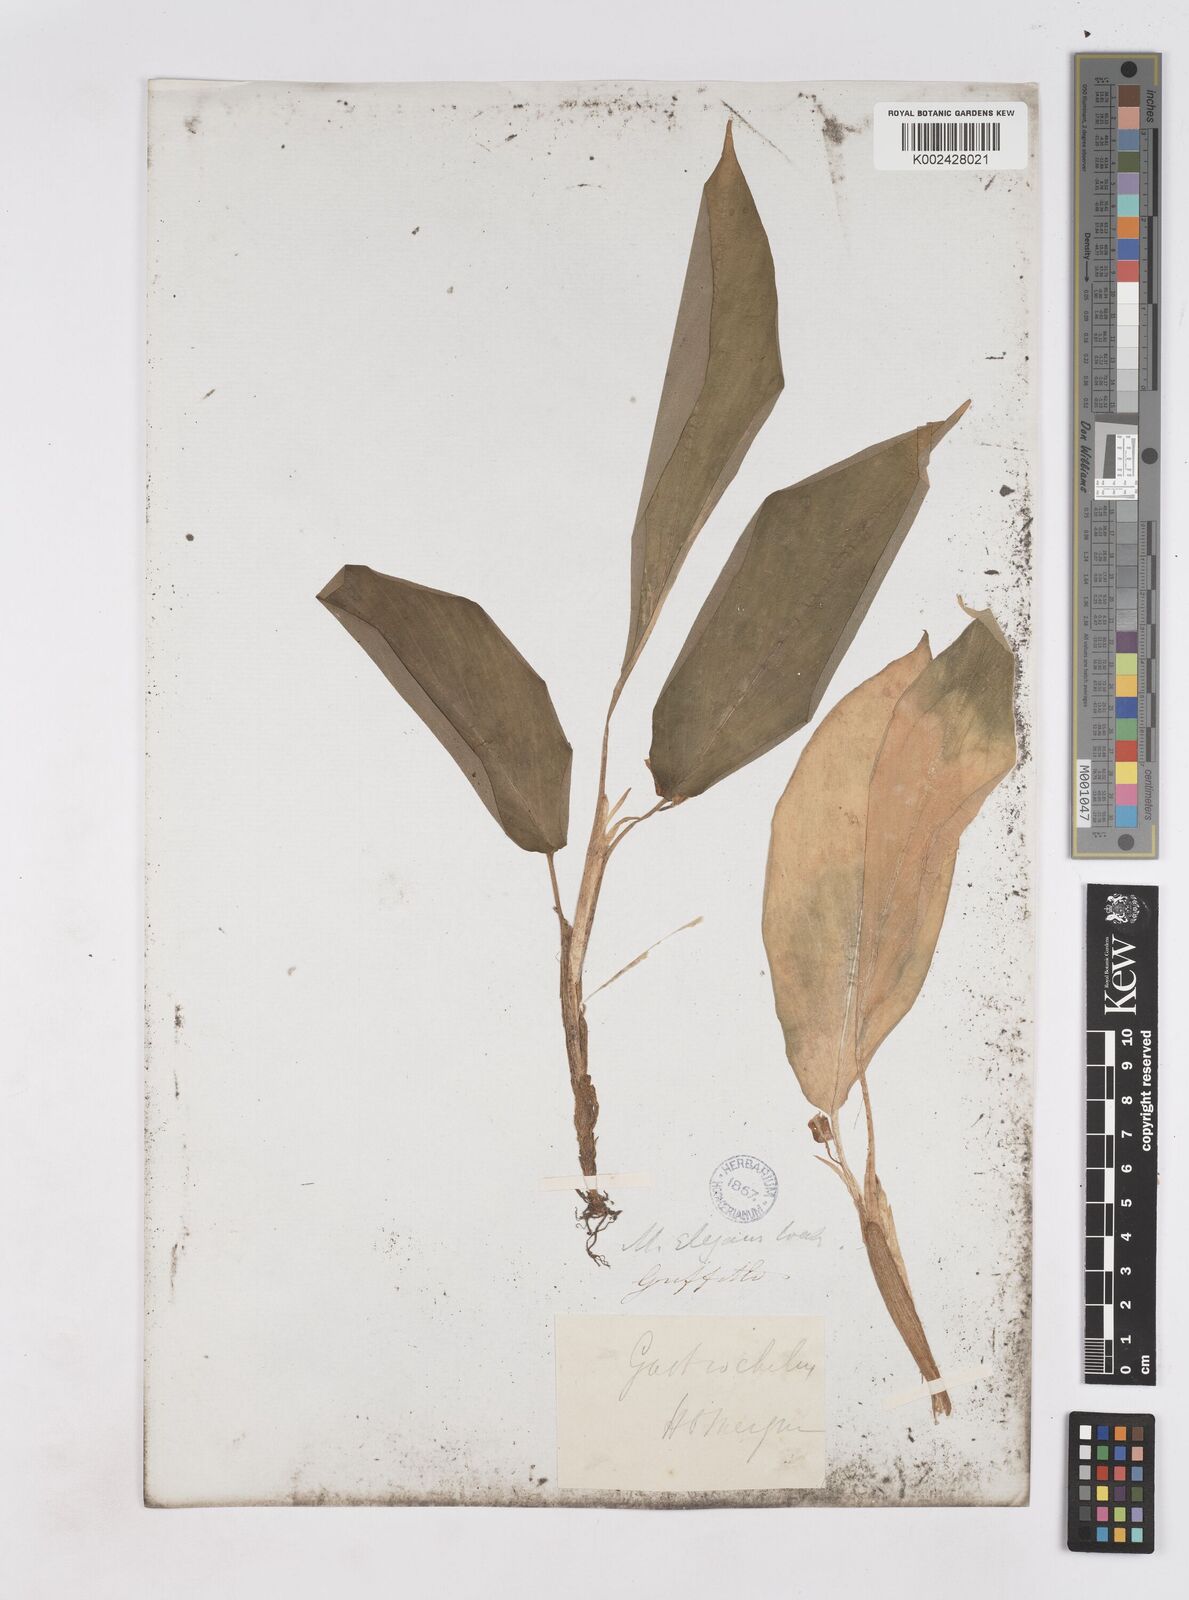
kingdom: Plantae
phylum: Tracheophyta
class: Liliopsida
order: Zingiberales
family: Zingiberaceae
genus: Kaempferia
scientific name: Kaempferia elegans
